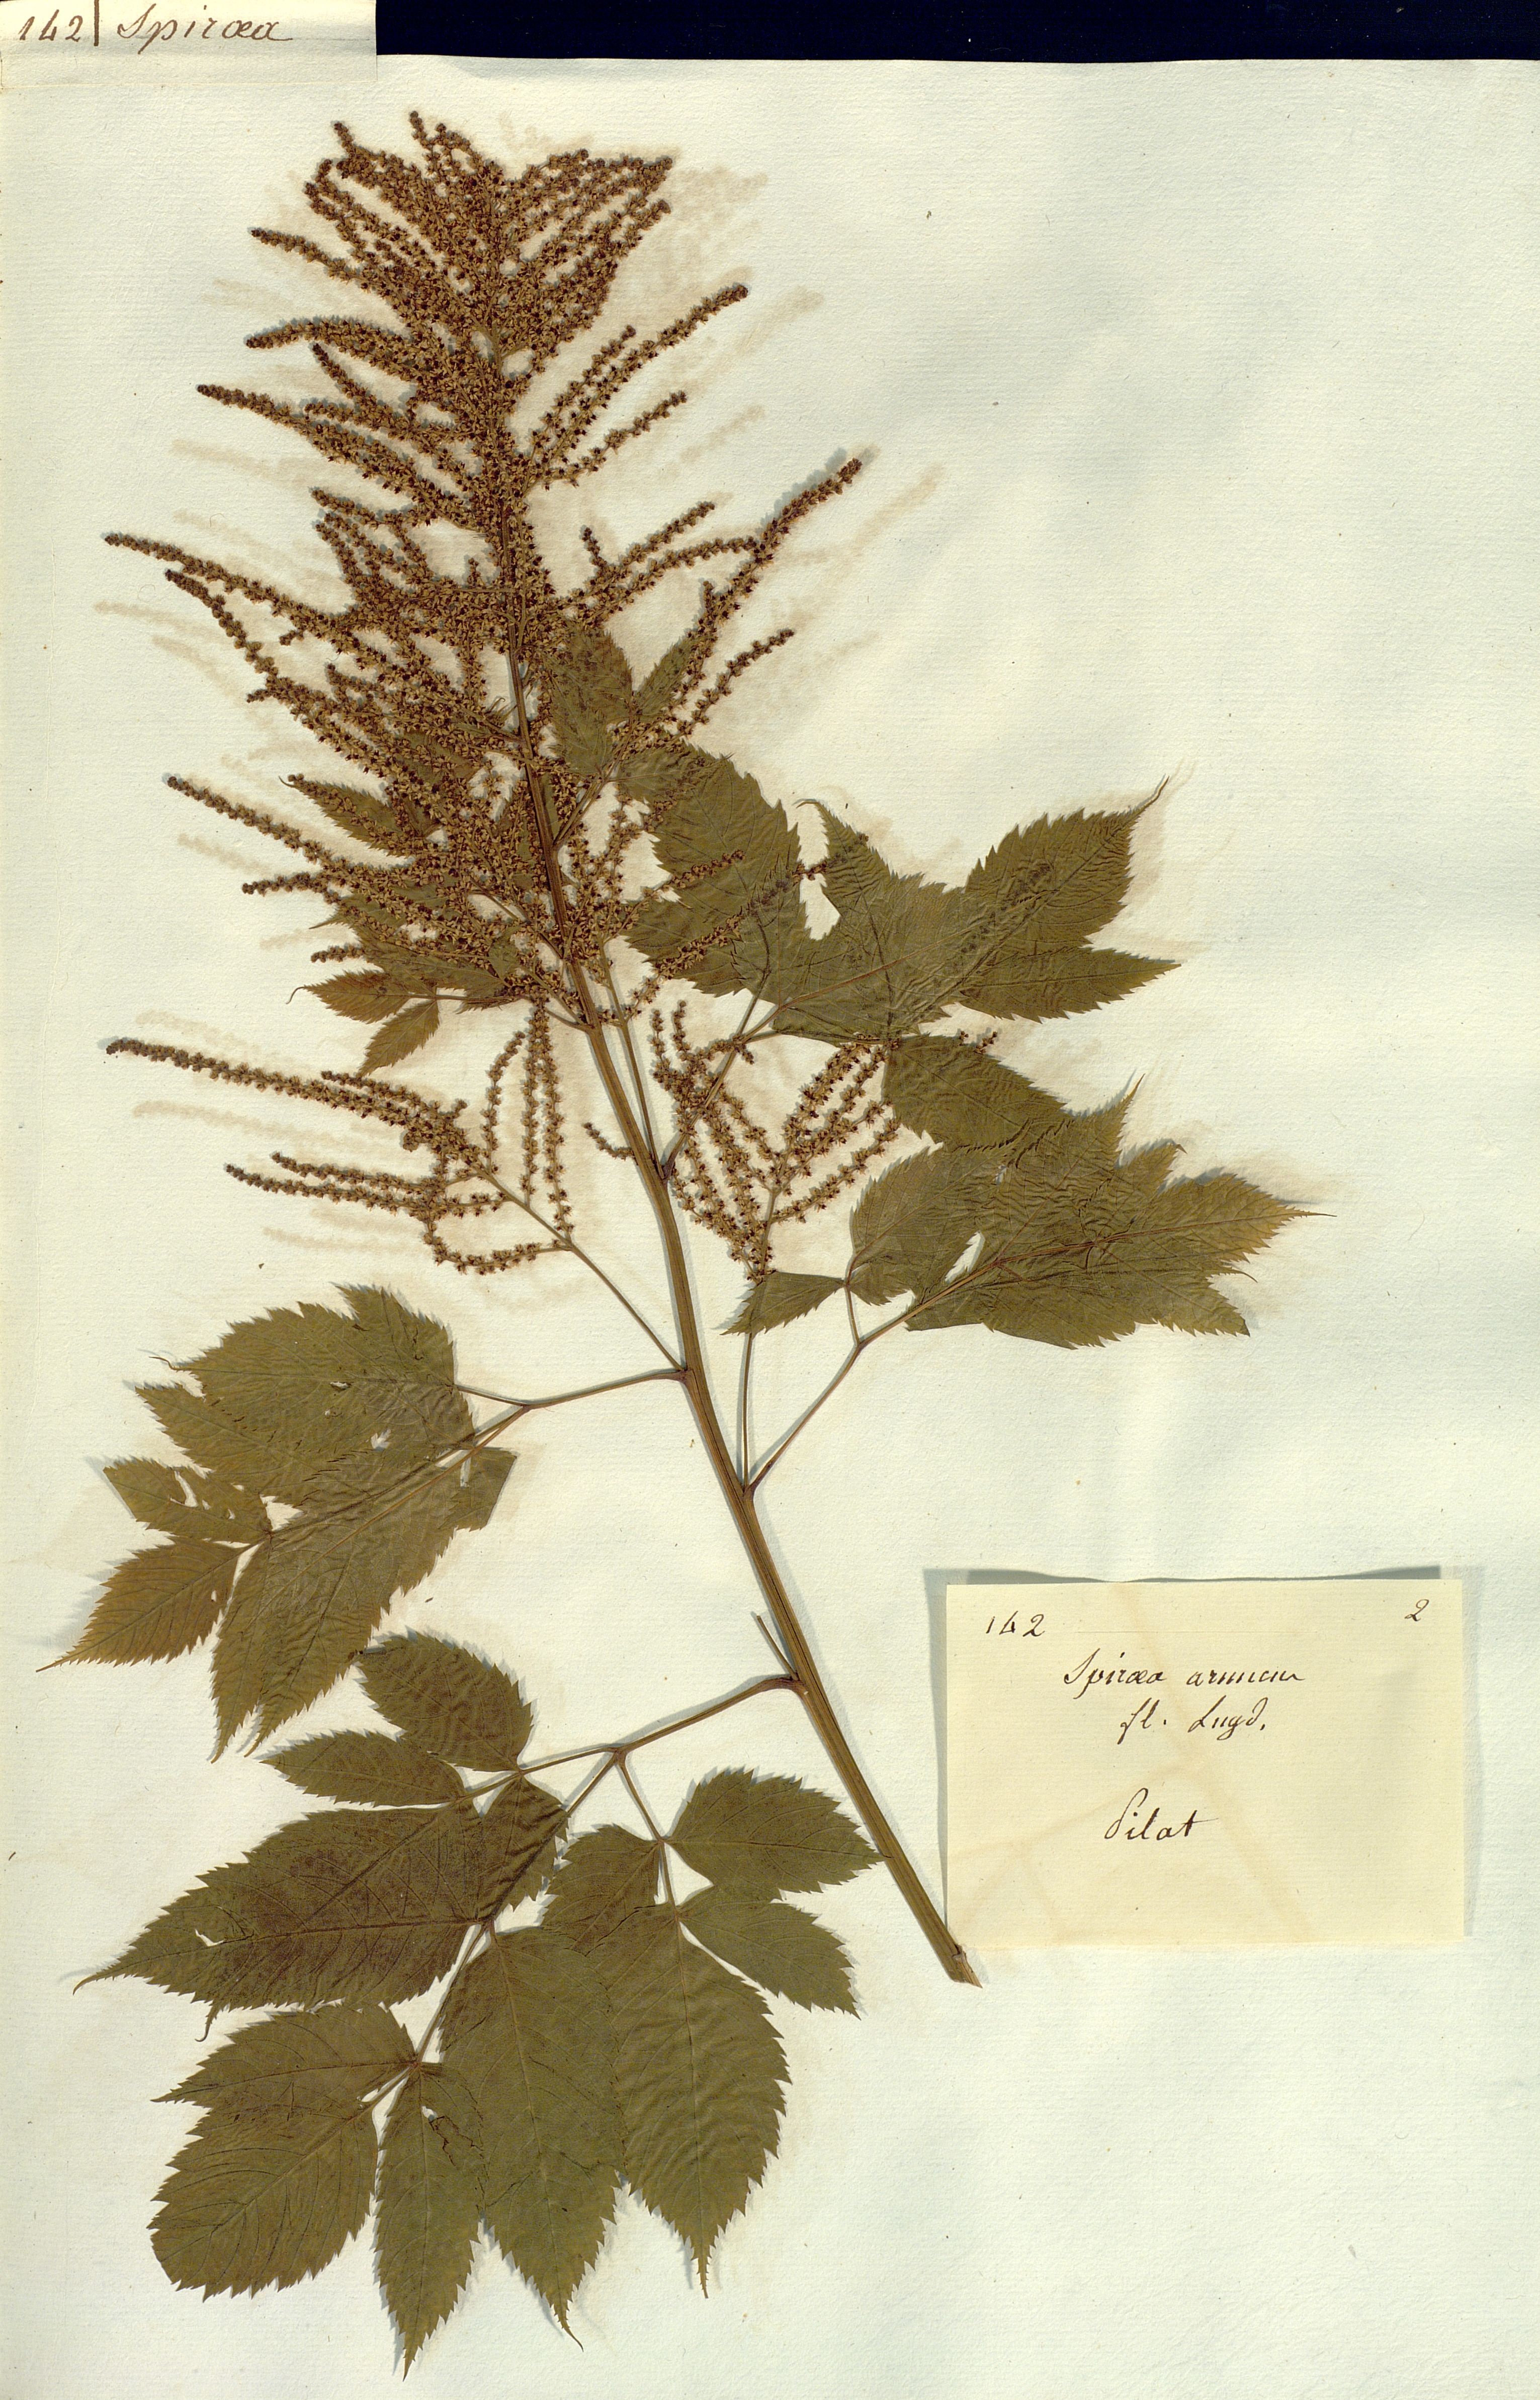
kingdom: Plantae
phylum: Tracheophyta
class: Magnoliopsida
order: Rosales
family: Rosaceae
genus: Aruncus
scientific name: Aruncus dioicus
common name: Buck's-beard
